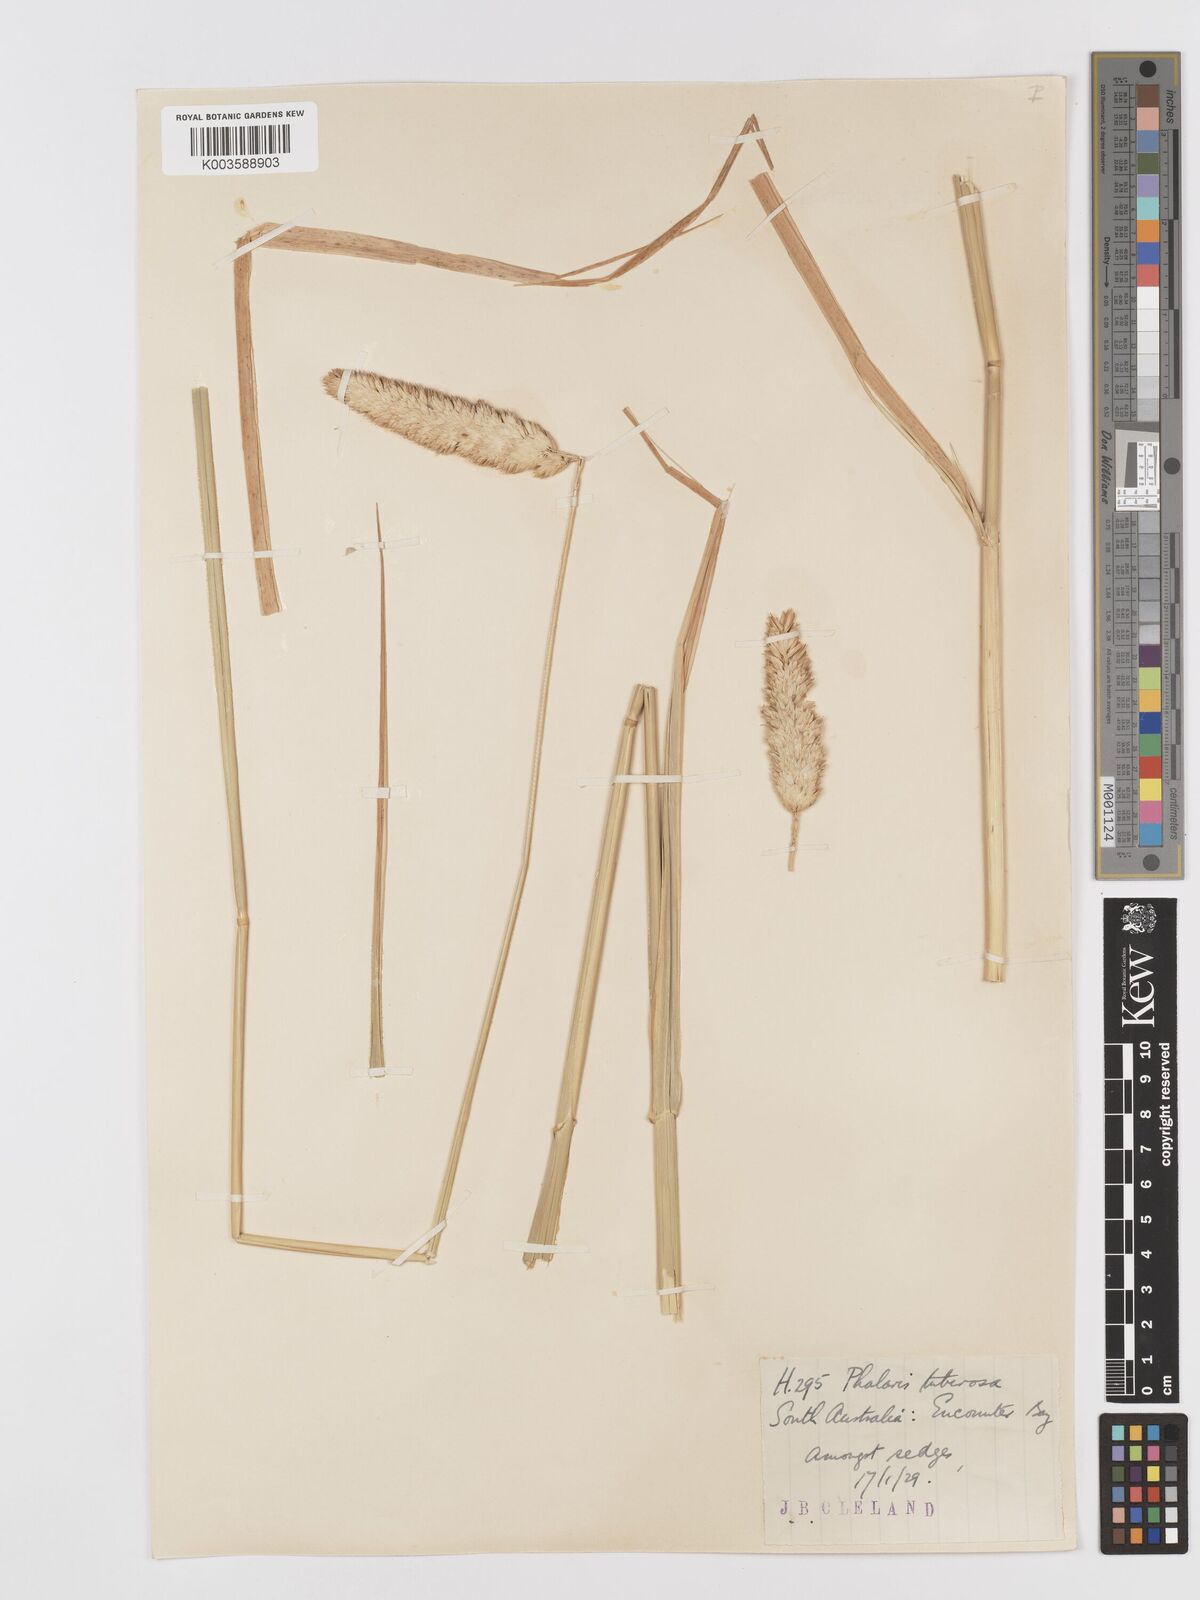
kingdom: Plantae
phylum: Tracheophyta
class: Liliopsida
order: Poales
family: Poaceae
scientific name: Poaceae
